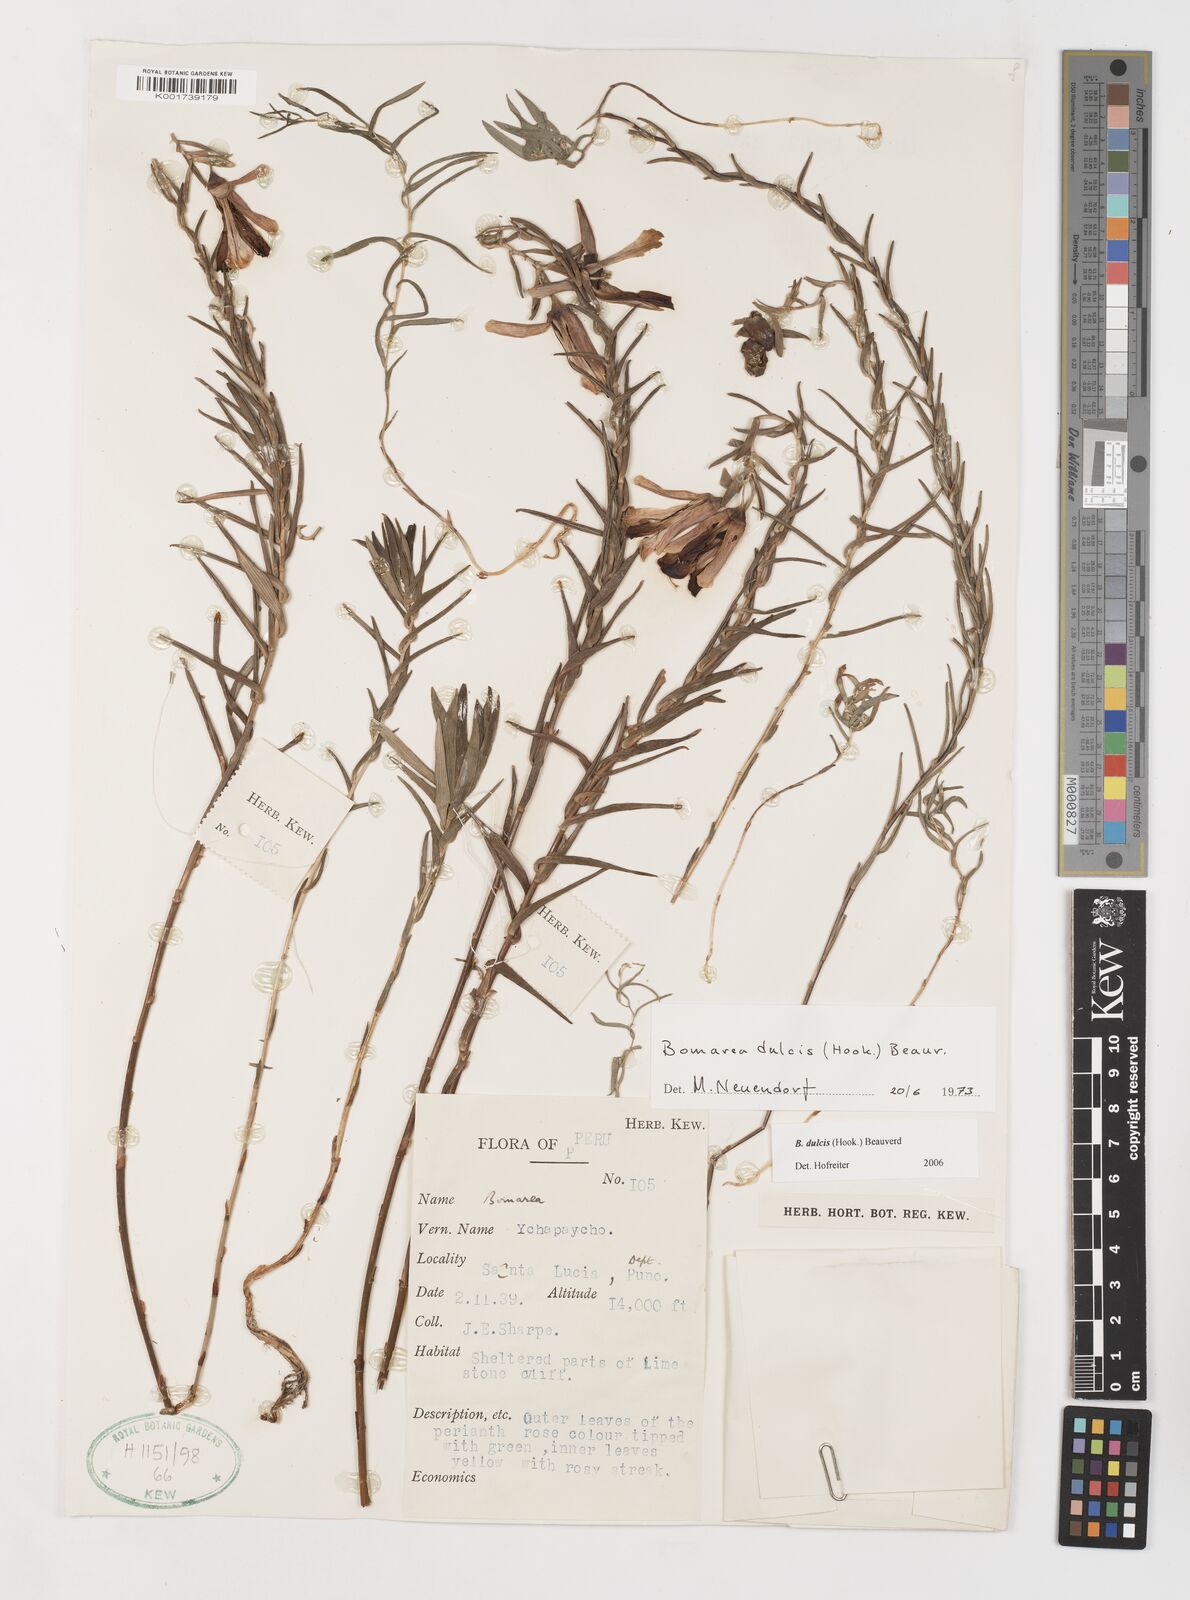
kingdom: Plantae
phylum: Tracheophyta
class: Liliopsida
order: Liliales
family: Alstroemeriaceae
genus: Bomarea
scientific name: Bomarea dulcis
